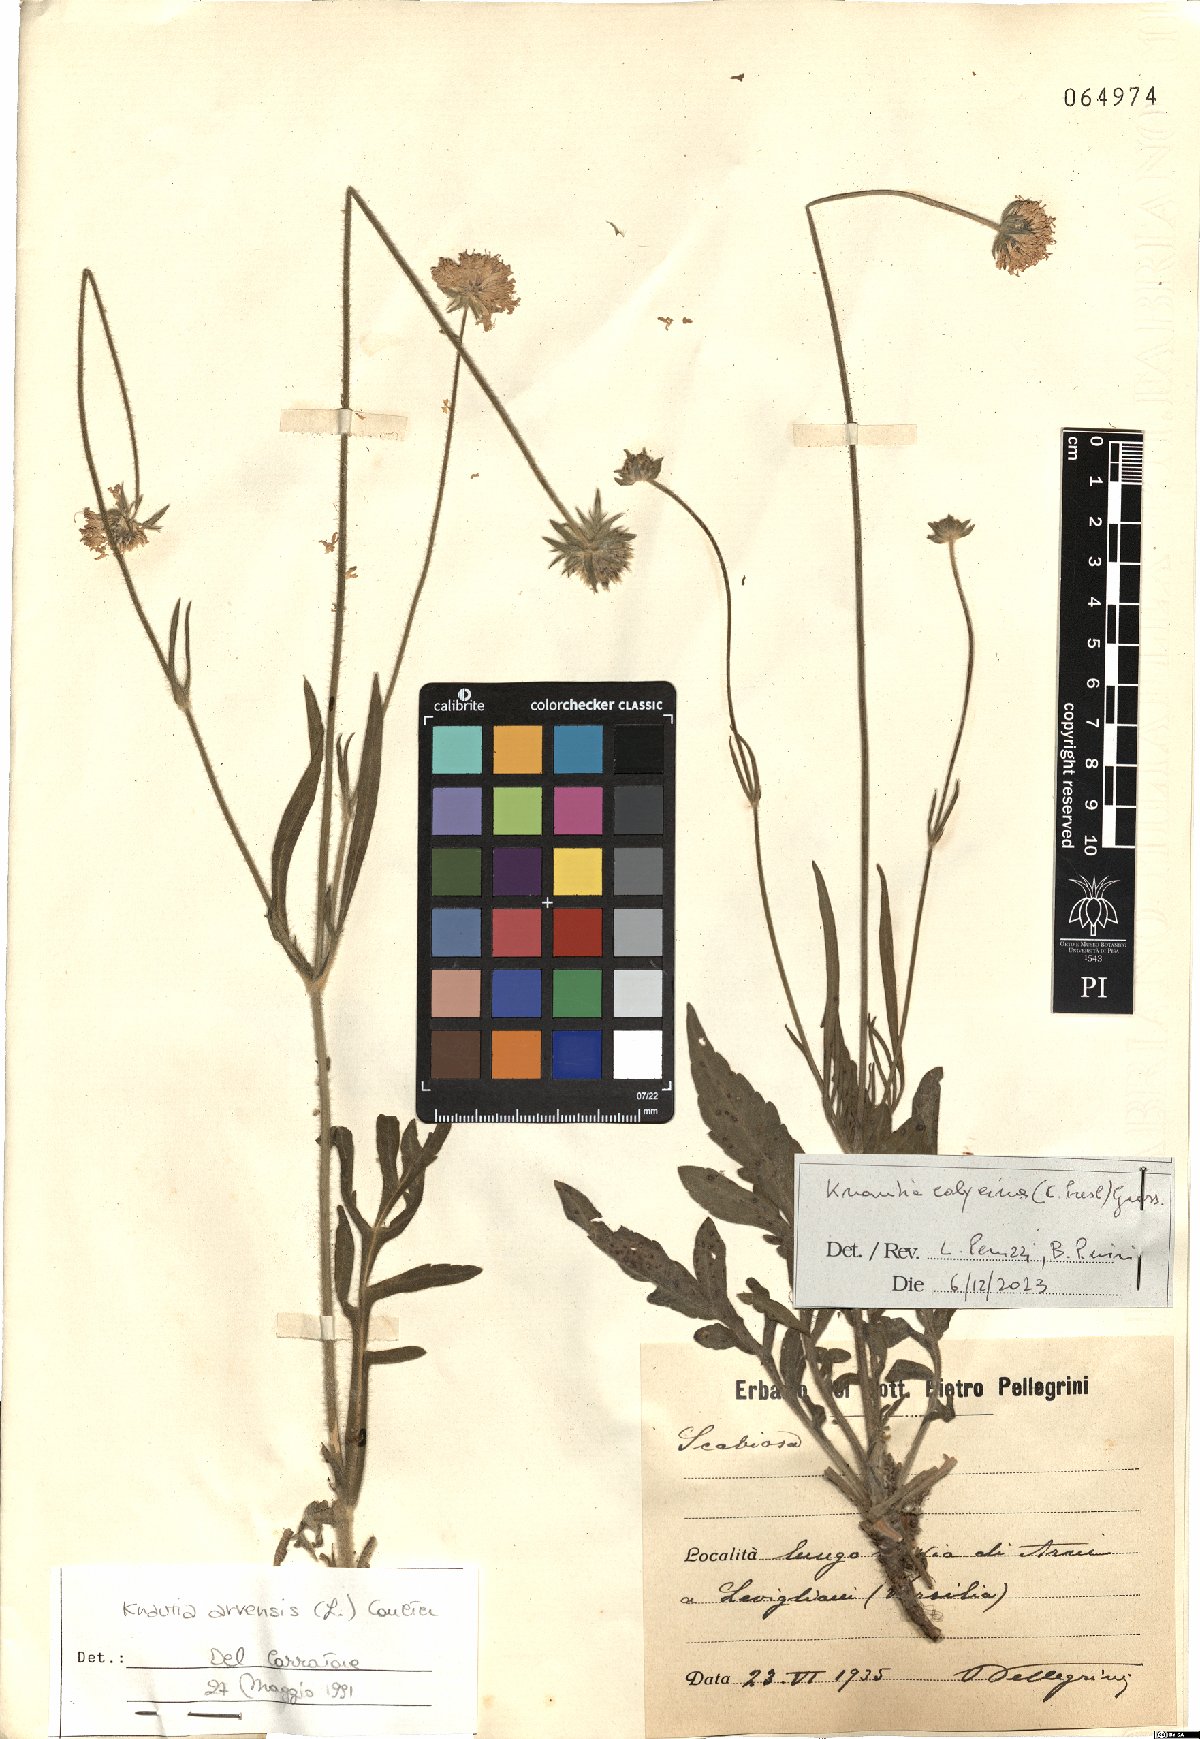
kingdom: Plantae
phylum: Tracheophyta
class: Magnoliopsida
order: Dipsacales
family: Caprifoliaceae
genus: Knautia
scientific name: Knautia calycina
